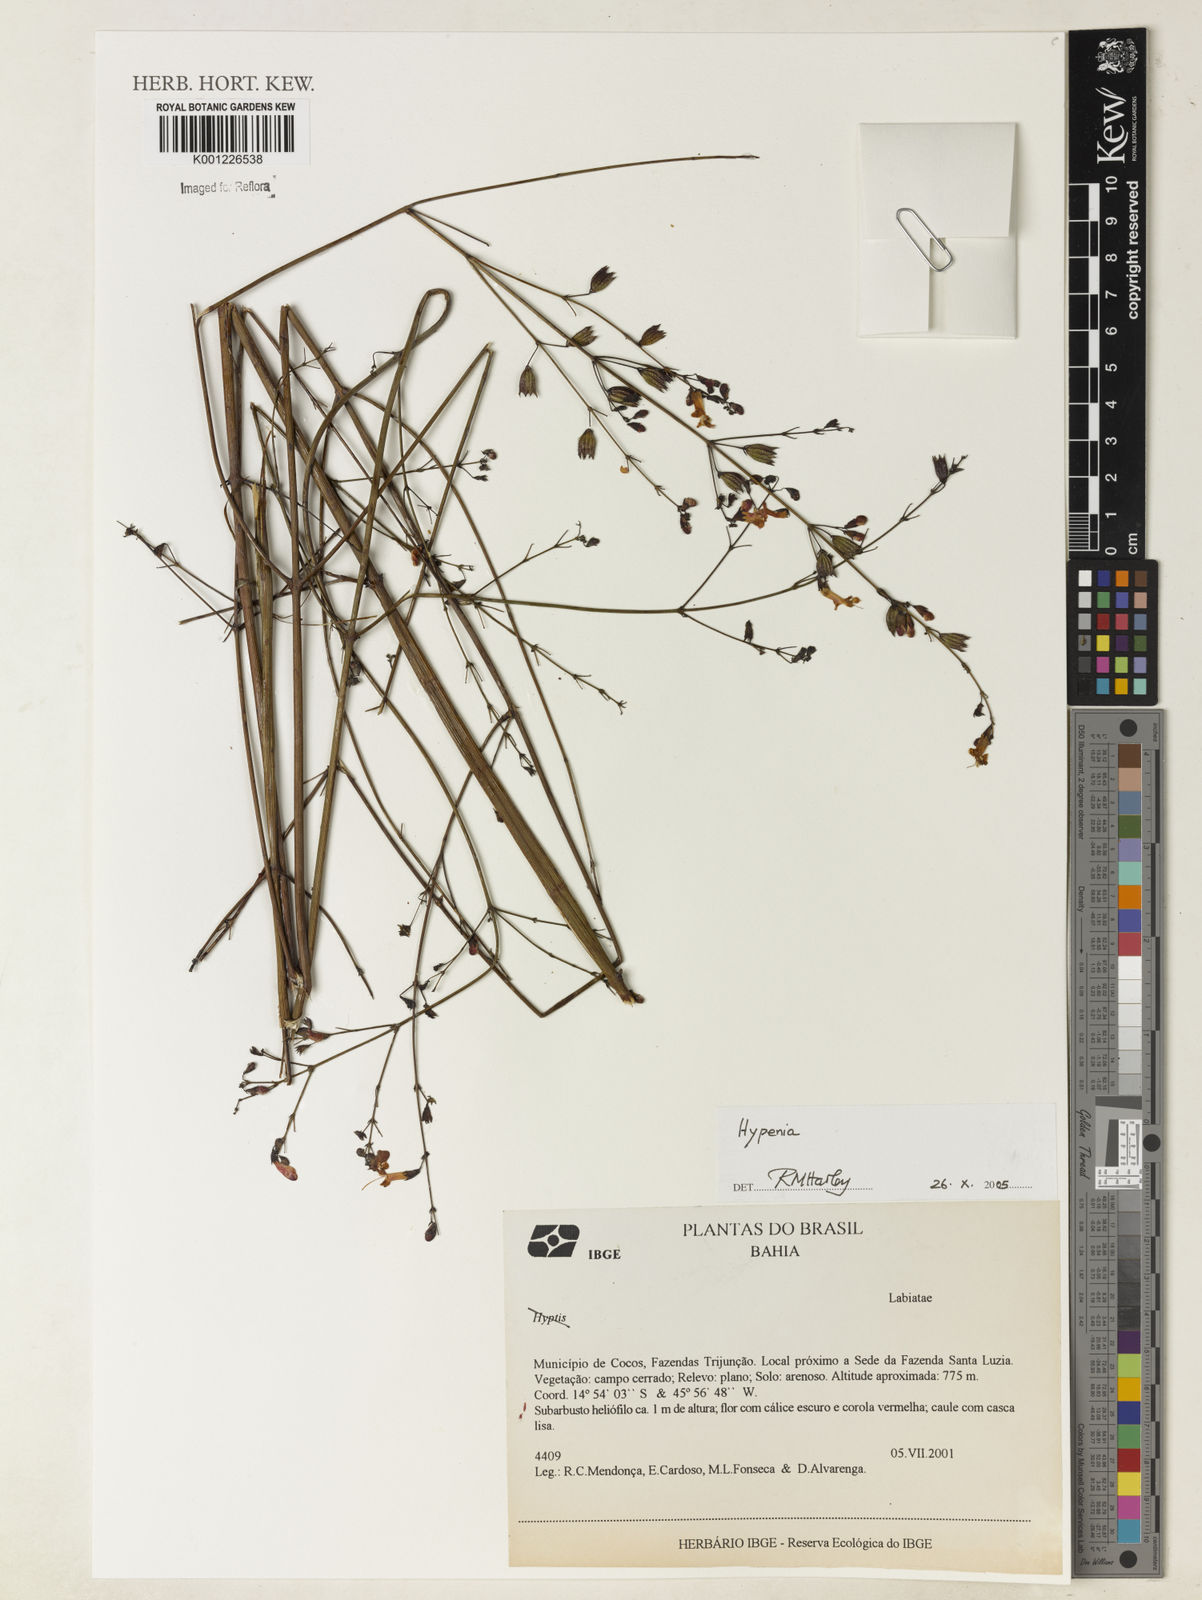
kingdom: Plantae
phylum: Tracheophyta
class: Magnoliopsida
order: Lamiales
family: Lamiaceae
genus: Hypenia
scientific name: Hypenia
